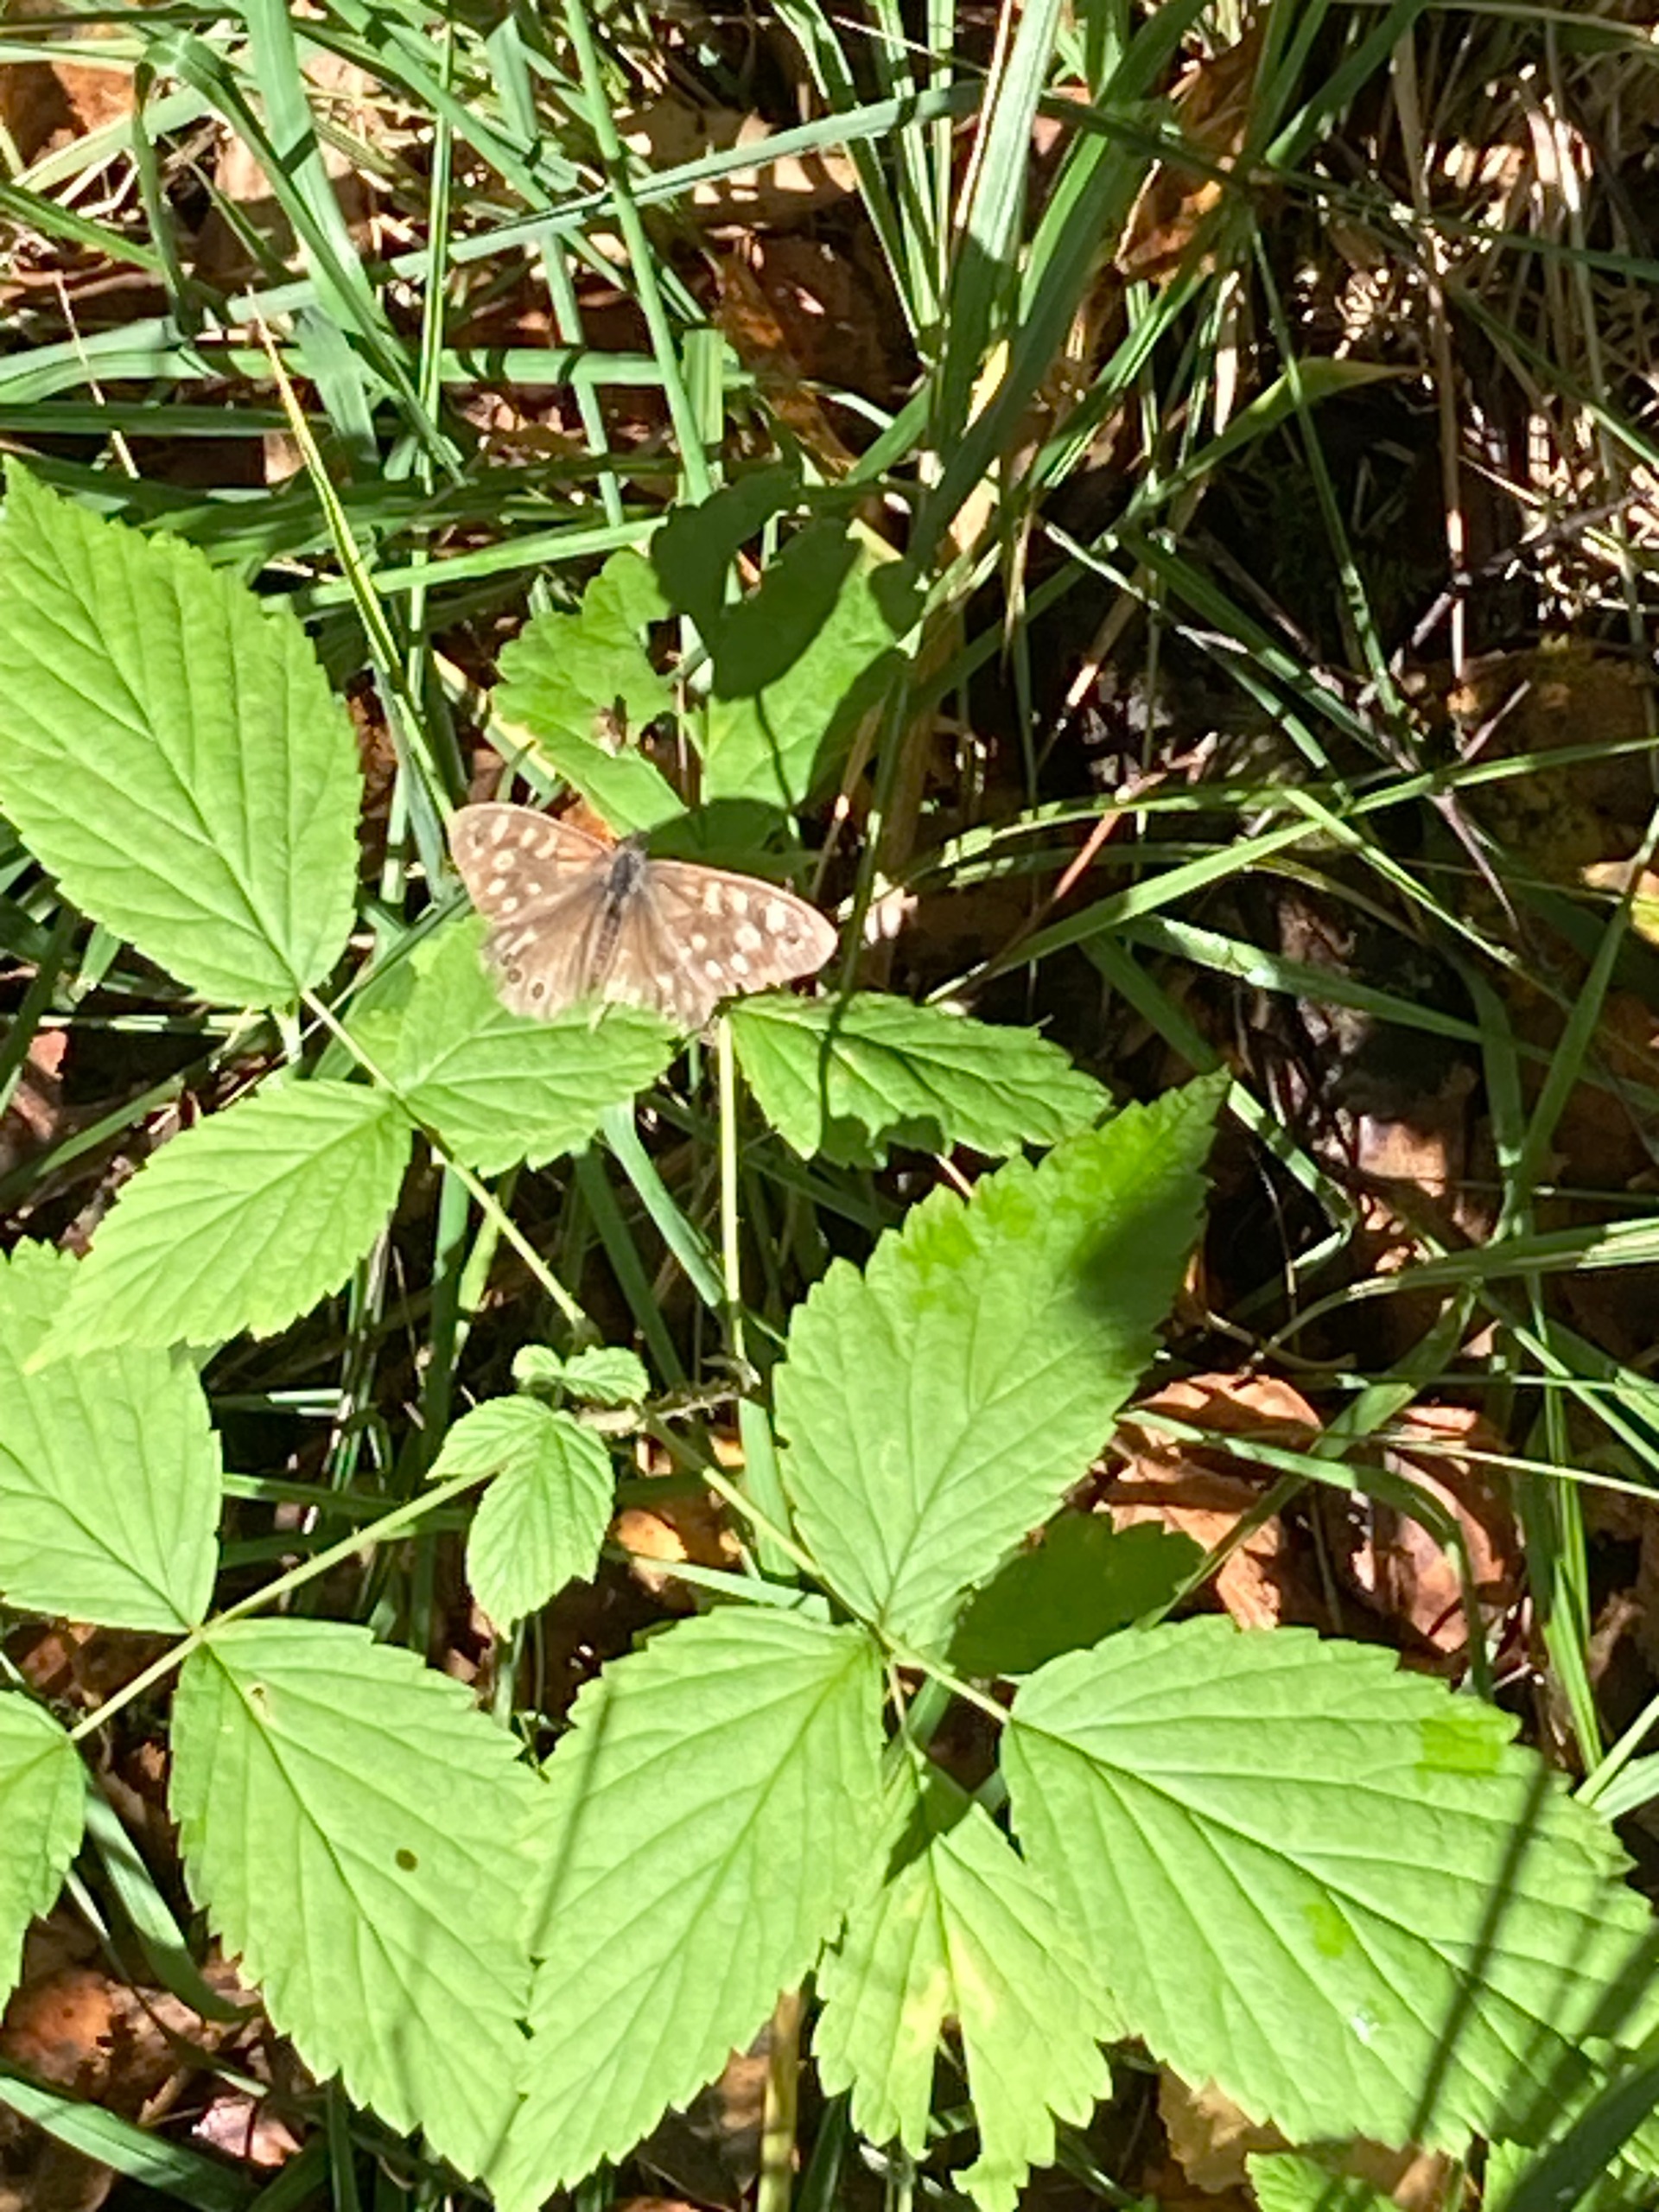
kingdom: Animalia
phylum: Arthropoda
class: Insecta
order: Lepidoptera
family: Nymphalidae
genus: Pararge
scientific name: Pararge aegeria
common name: Skovrandøje
